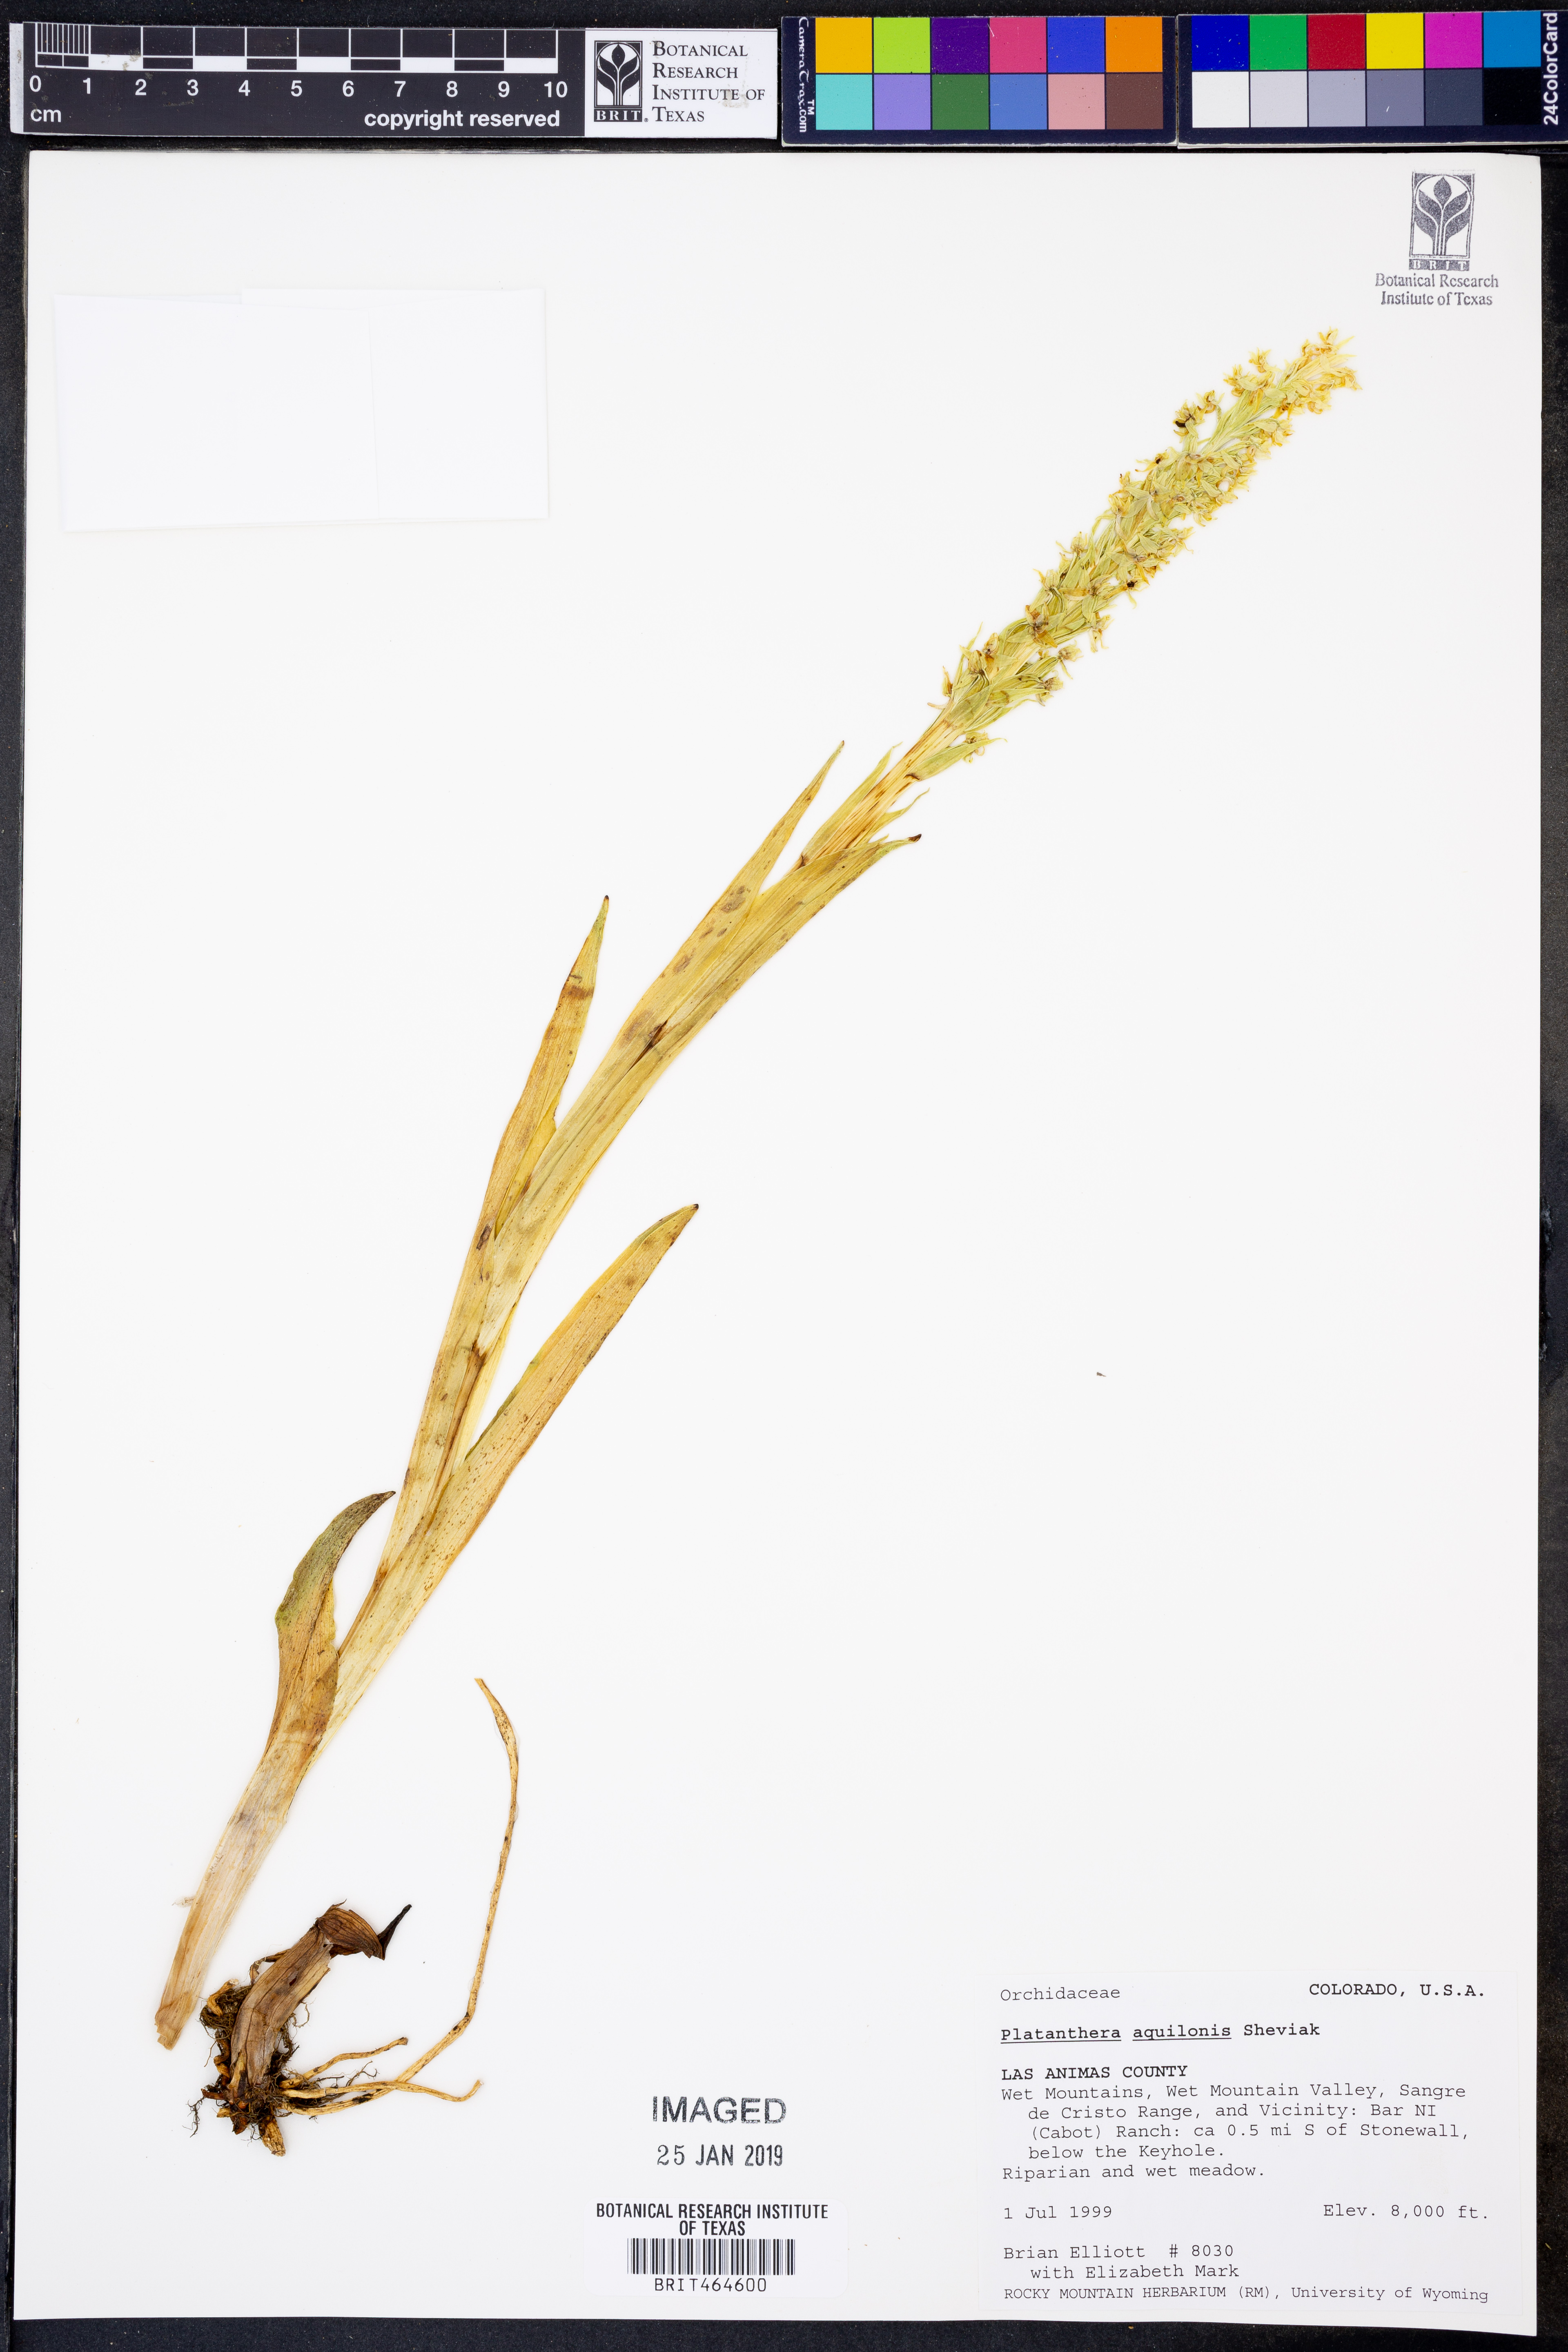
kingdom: Plantae
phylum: Tracheophyta
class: Liliopsida
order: Asparagales
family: Orchidaceae
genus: Platanthera
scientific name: Platanthera aquilonis
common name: Northern green orchid
